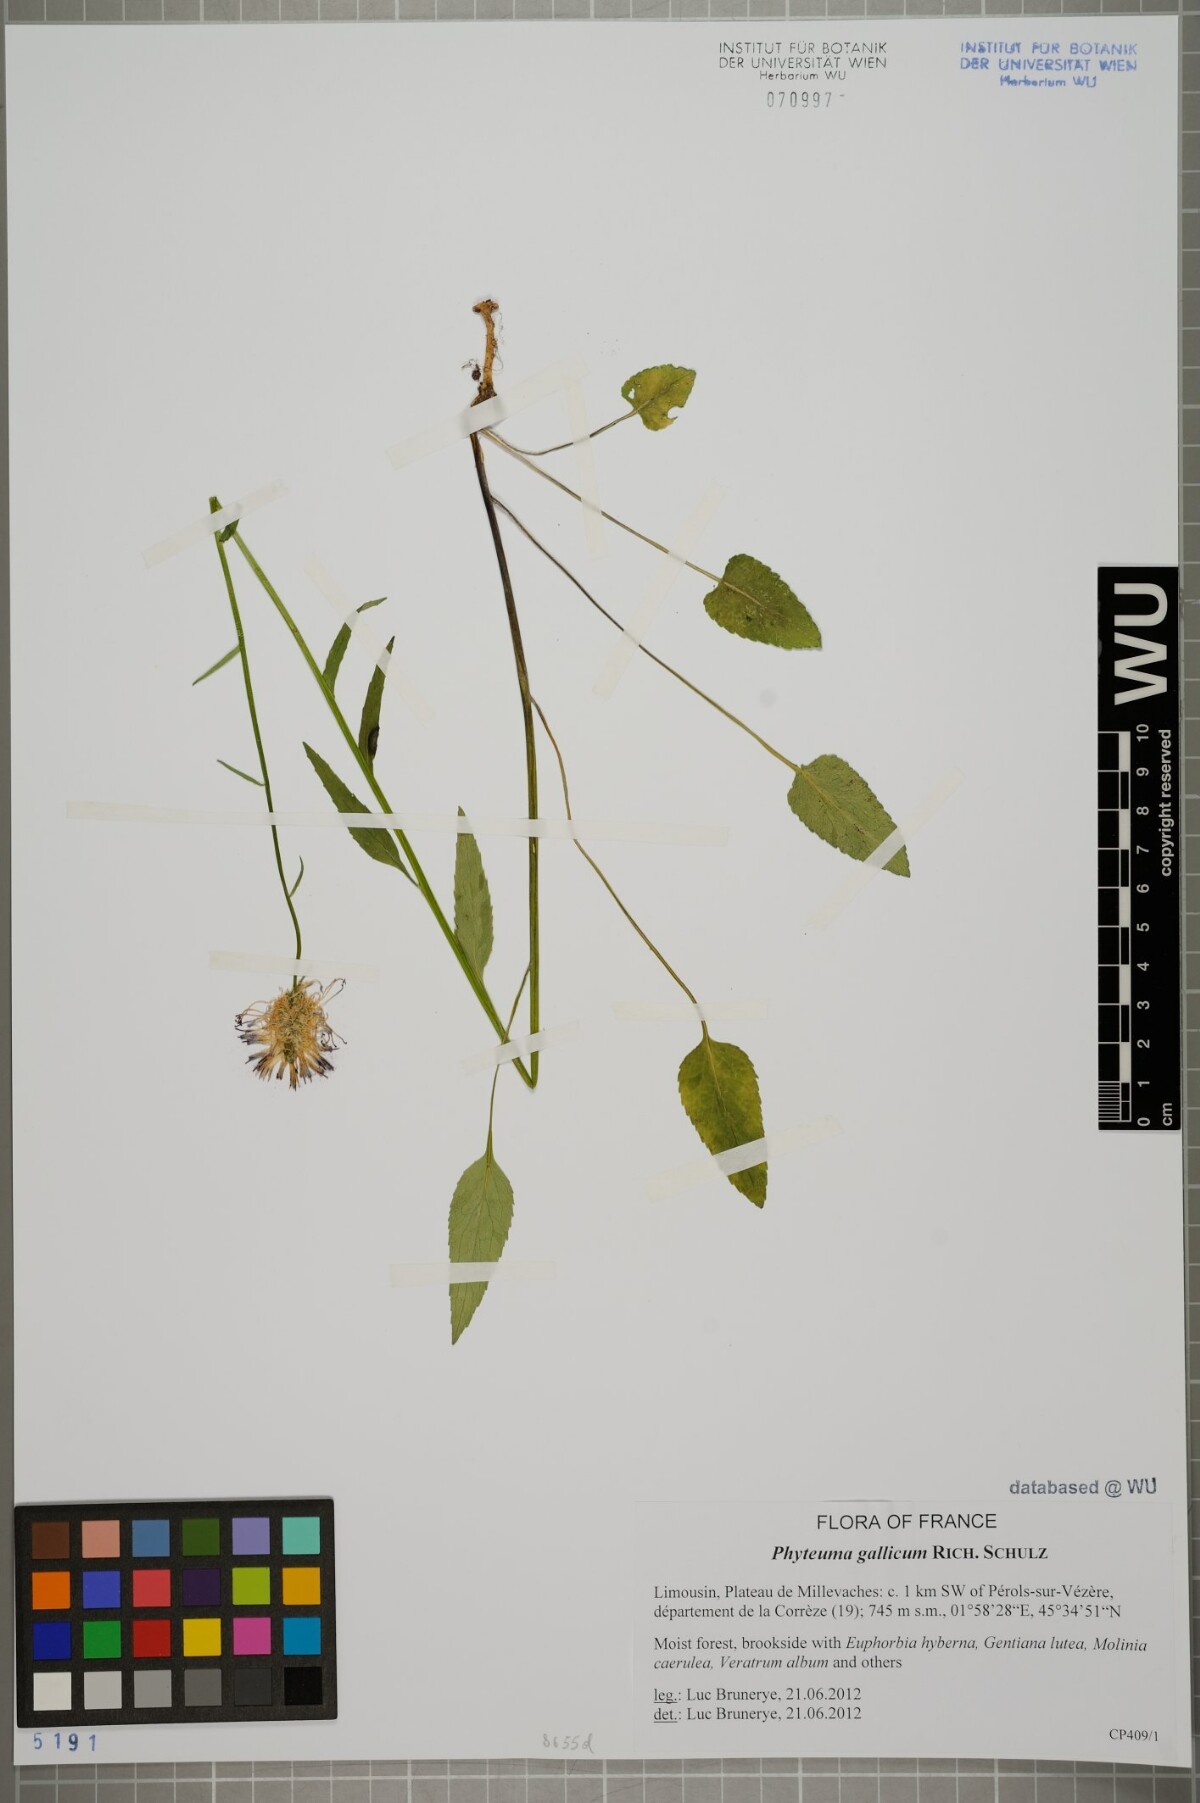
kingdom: Plantae
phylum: Tracheophyta
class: Magnoliopsida
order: Asterales
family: Campanulaceae
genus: Phyteuma
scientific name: Phyteuma gallicum
